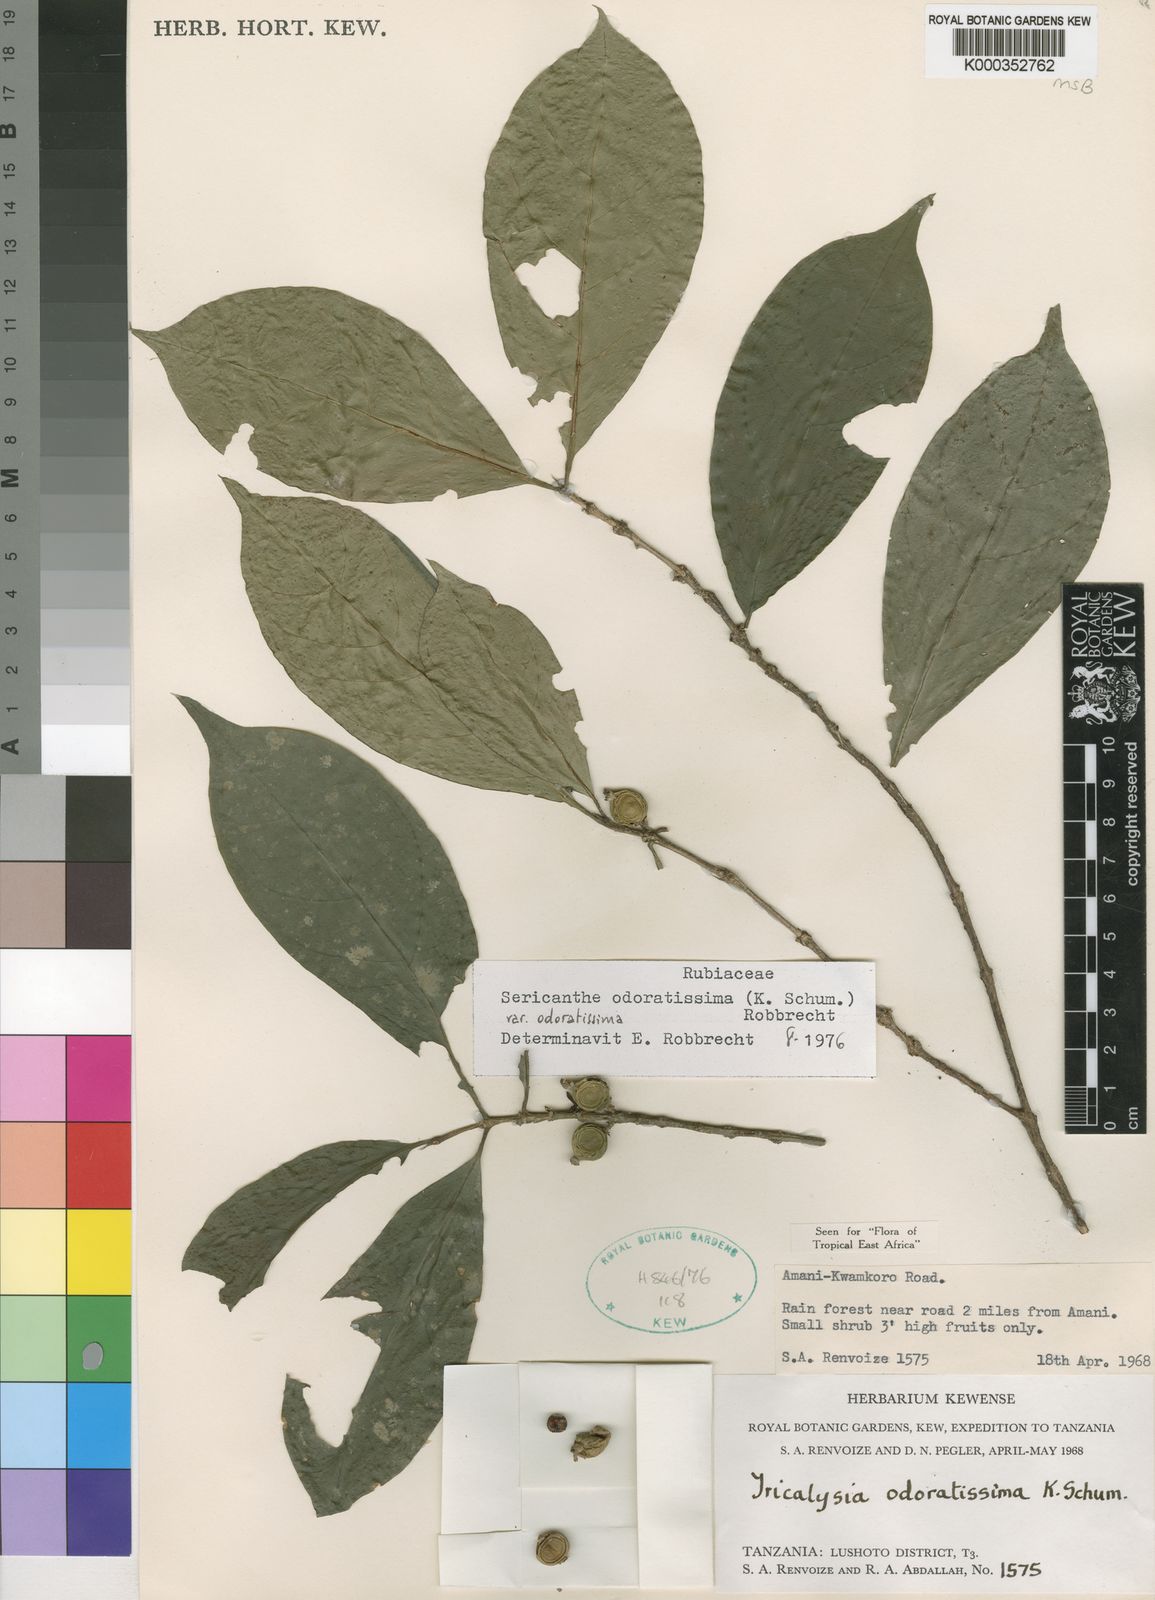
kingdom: Plantae
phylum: Tracheophyta
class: Magnoliopsida
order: Gentianales
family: Rubiaceae
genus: Sericanthe
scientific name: Sericanthe odoratissima
